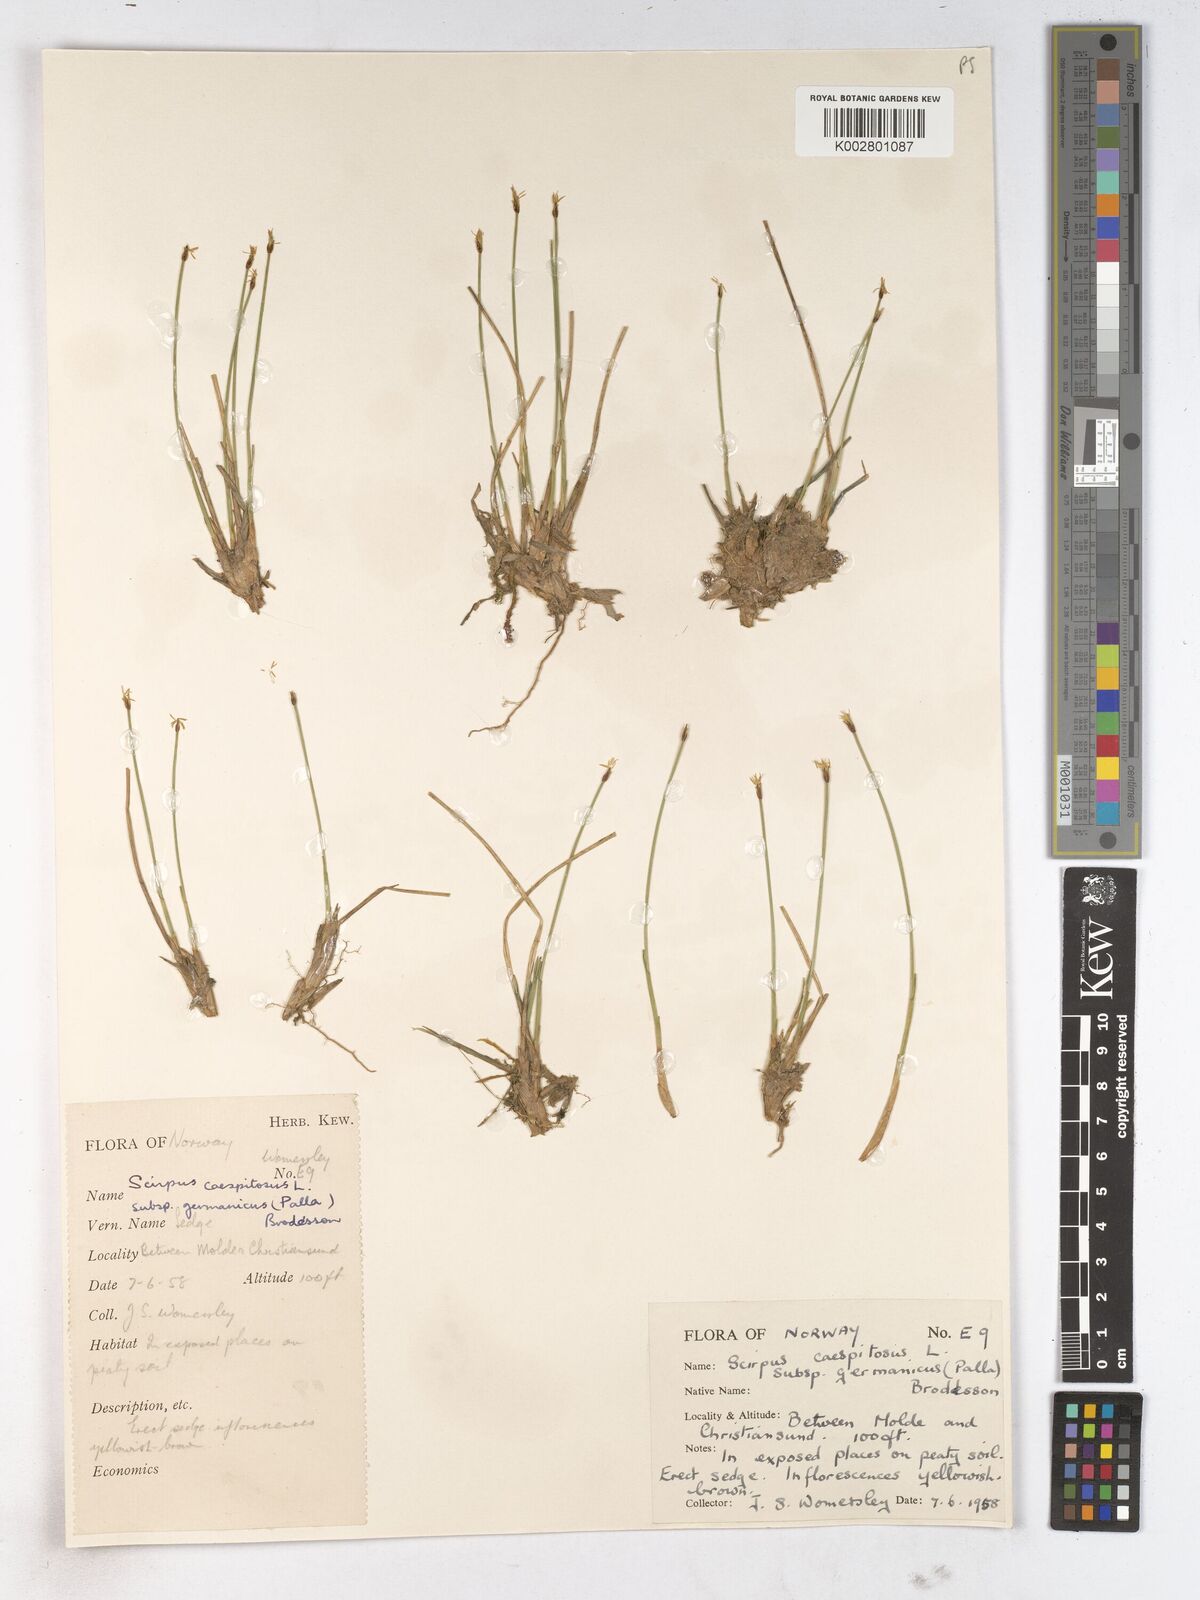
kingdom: Plantae
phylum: Tracheophyta
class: Liliopsida
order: Poales
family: Cyperaceae
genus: Trichophorum
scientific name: Trichophorum cespitosum
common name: Cespitose bulrush
